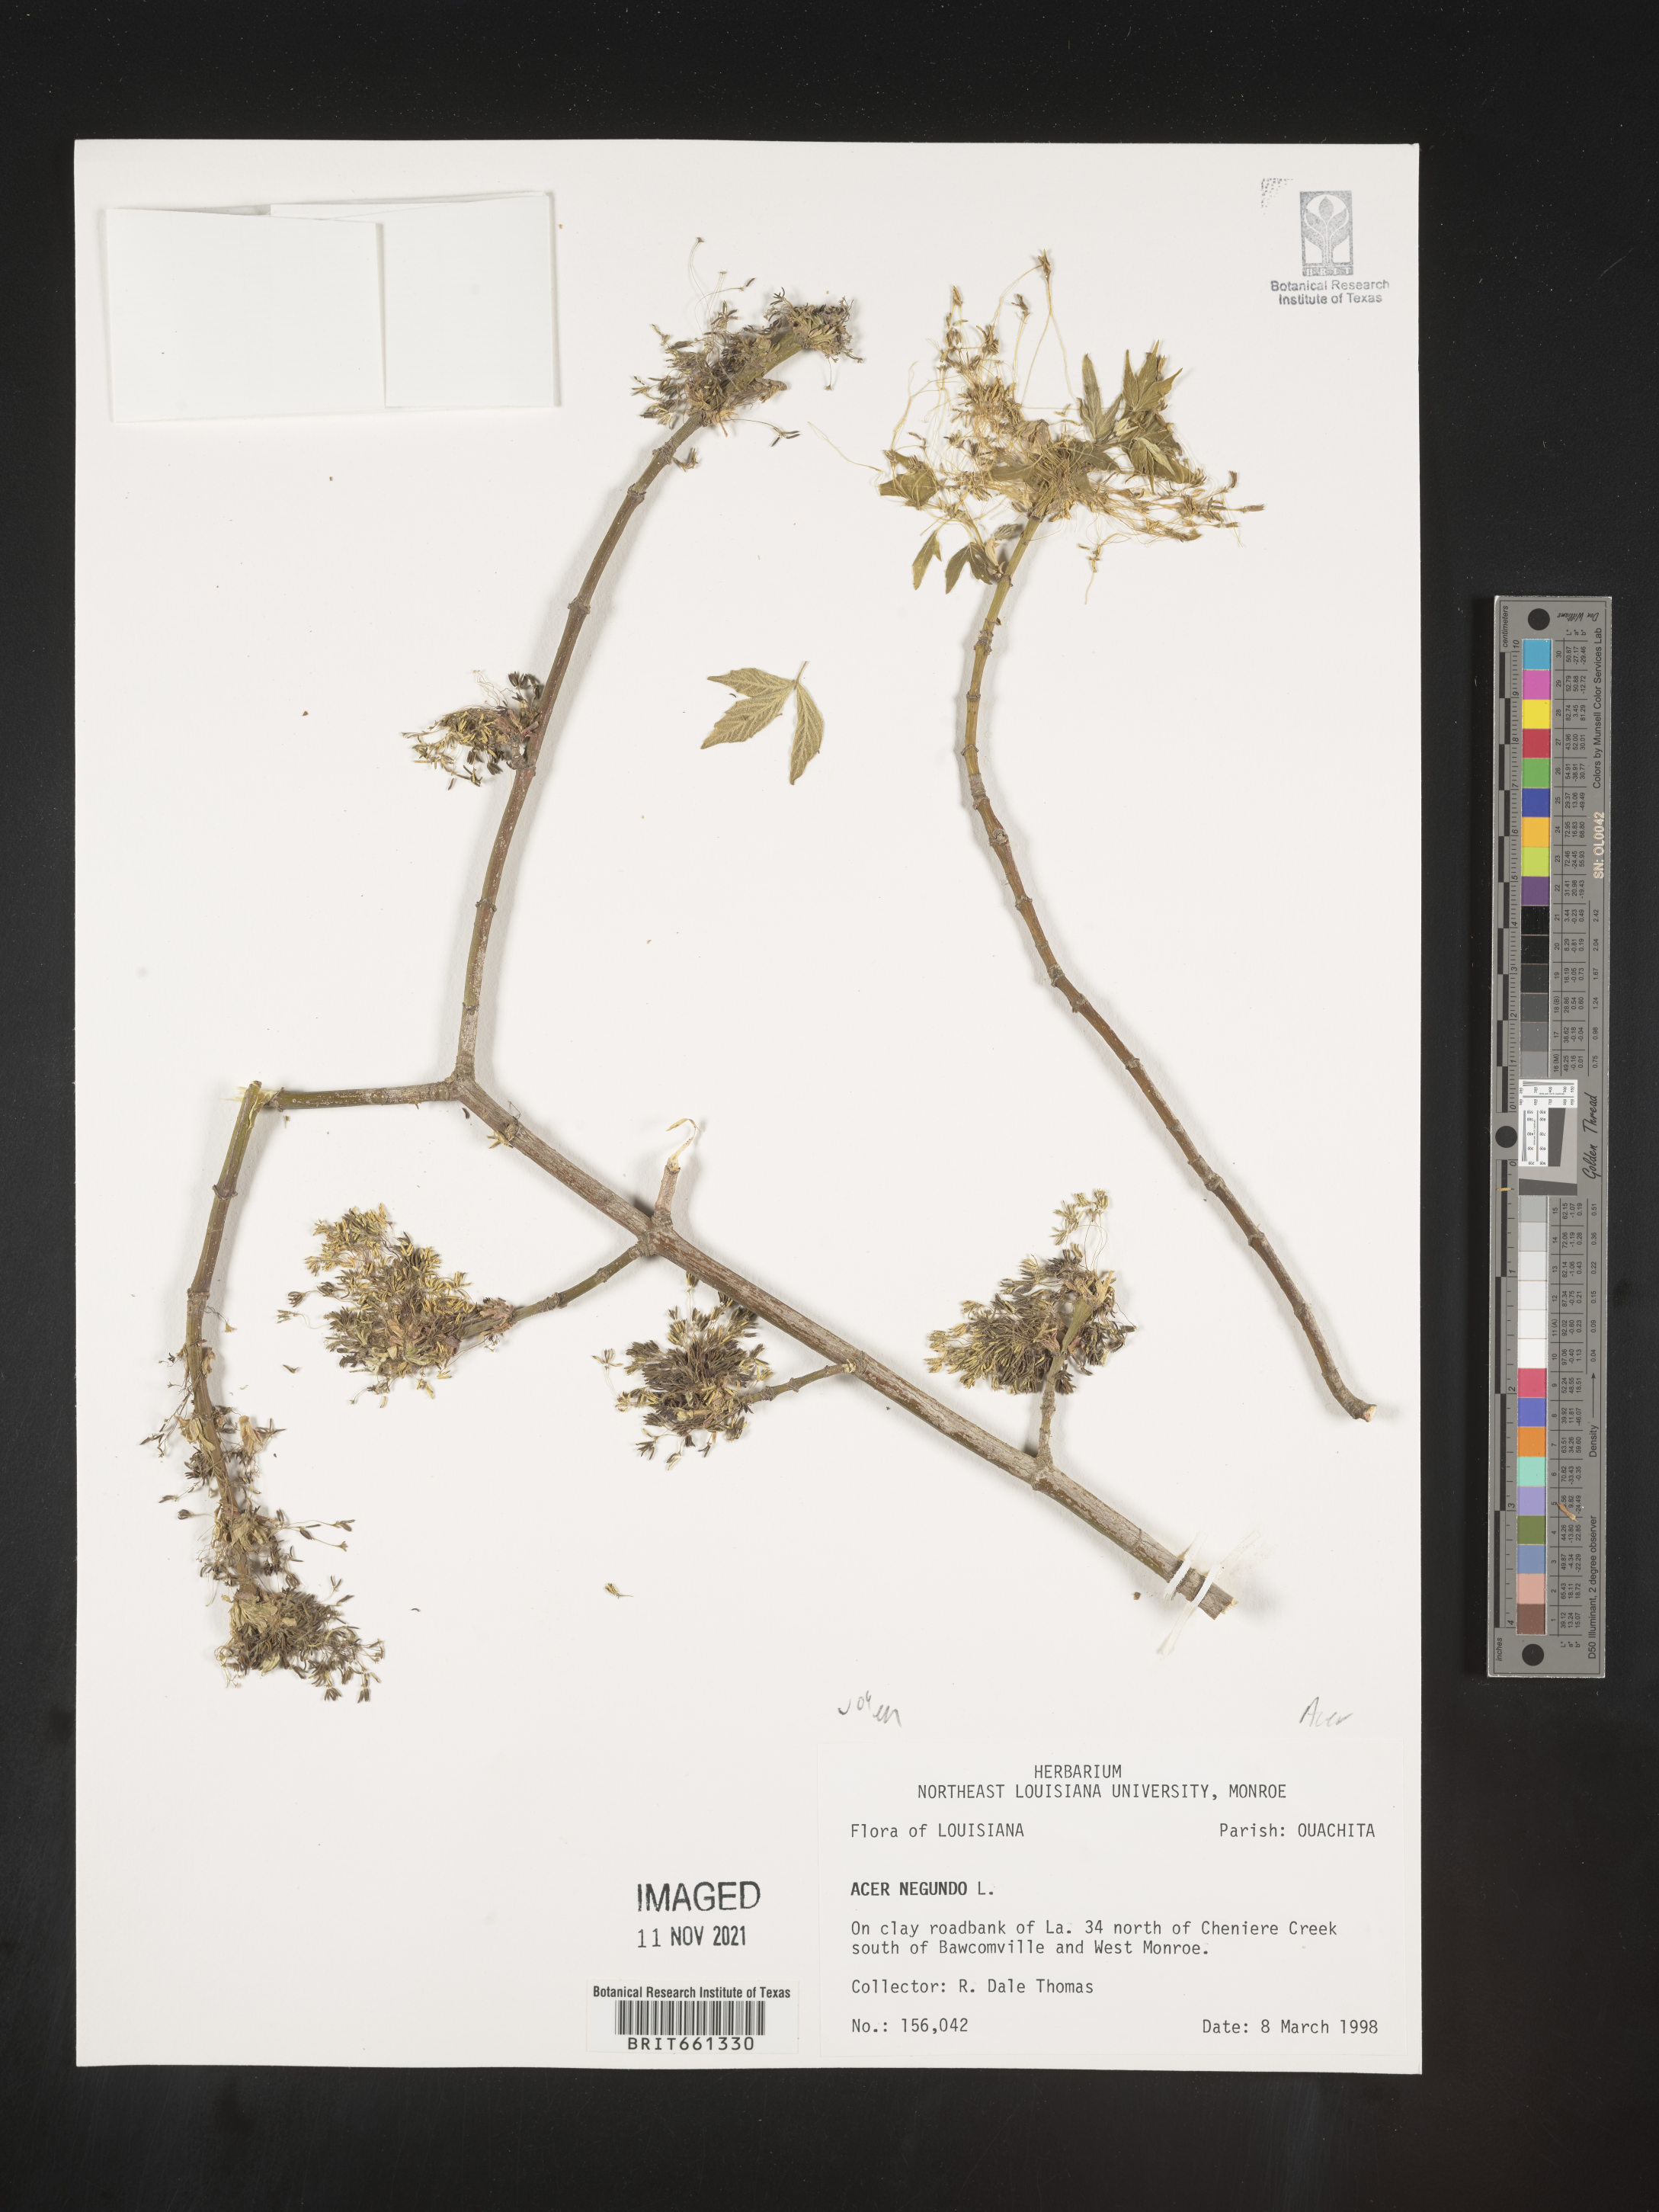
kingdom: Plantae
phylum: Tracheophyta
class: Magnoliopsida
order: Sapindales
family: Sapindaceae
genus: Acer
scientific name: Acer negundo
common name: Ashleaf maple
